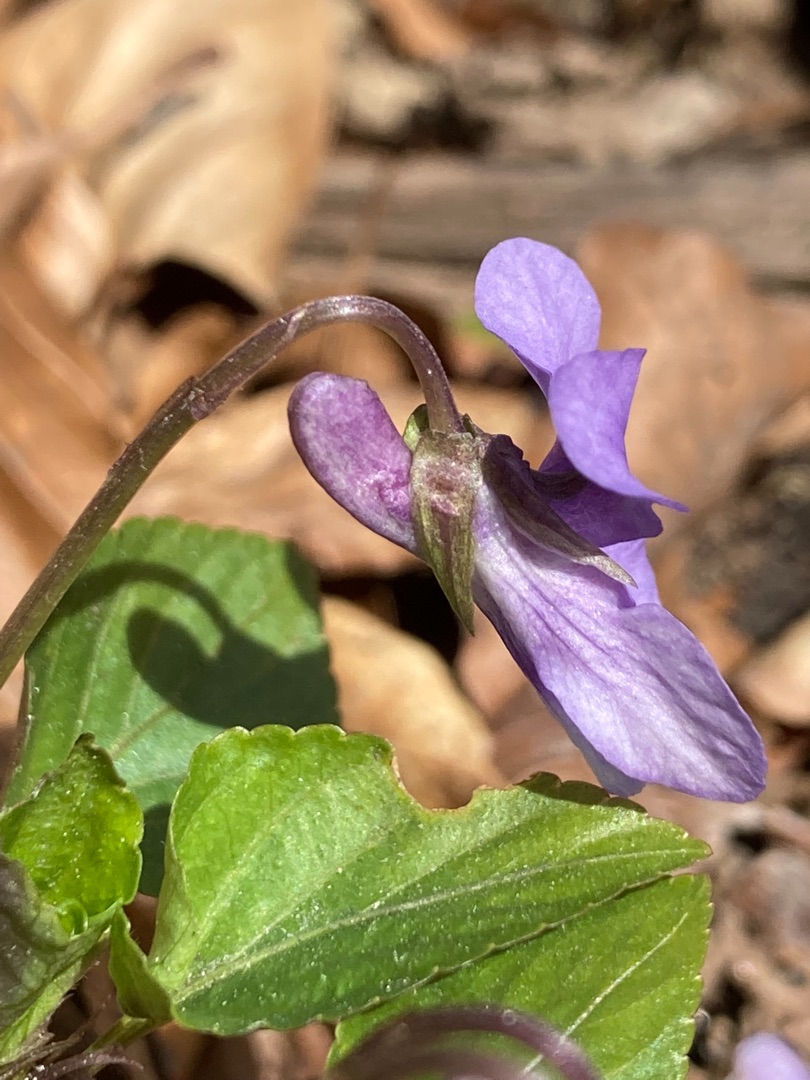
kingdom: Plantae
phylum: Tracheophyta
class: Magnoliopsida
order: Malpighiales
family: Violaceae
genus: Viola
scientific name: Viola reichenbachiana
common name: Skov-viol
